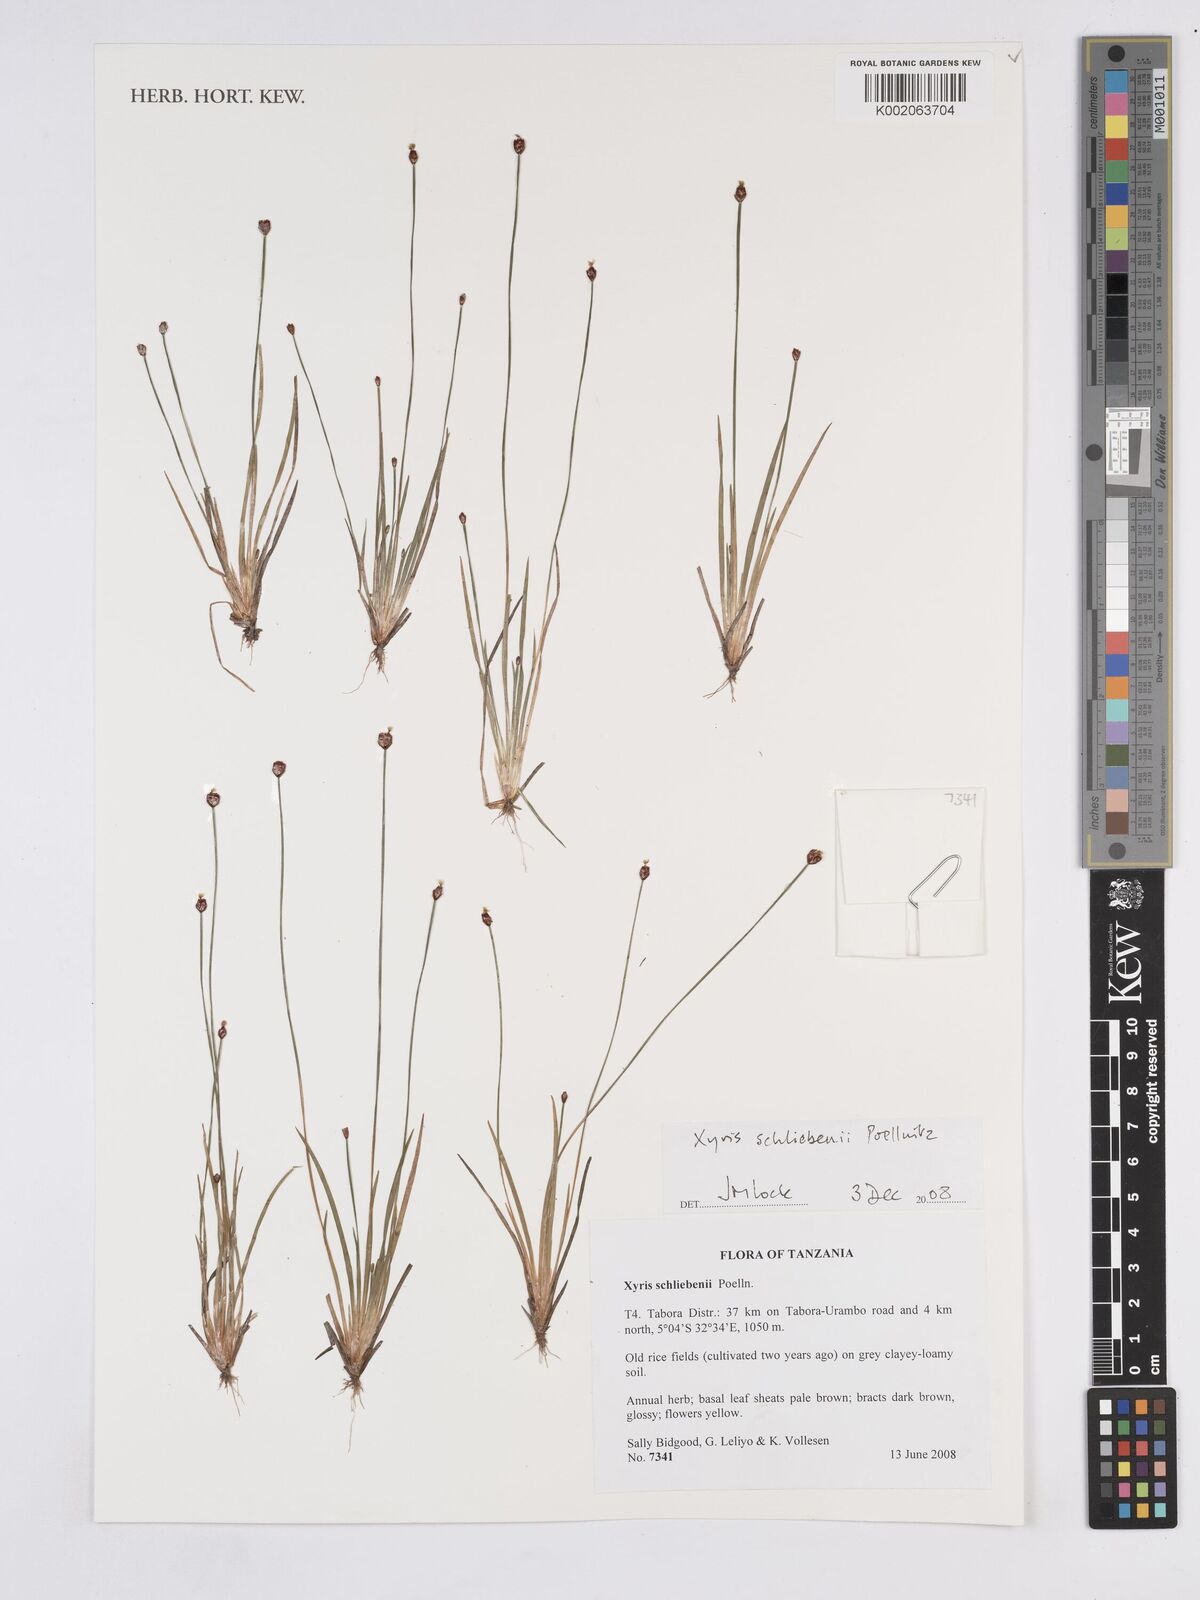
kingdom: Plantae
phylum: Tracheophyta
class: Liliopsida
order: Poales
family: Xyridaceae
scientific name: Xyridaceae
